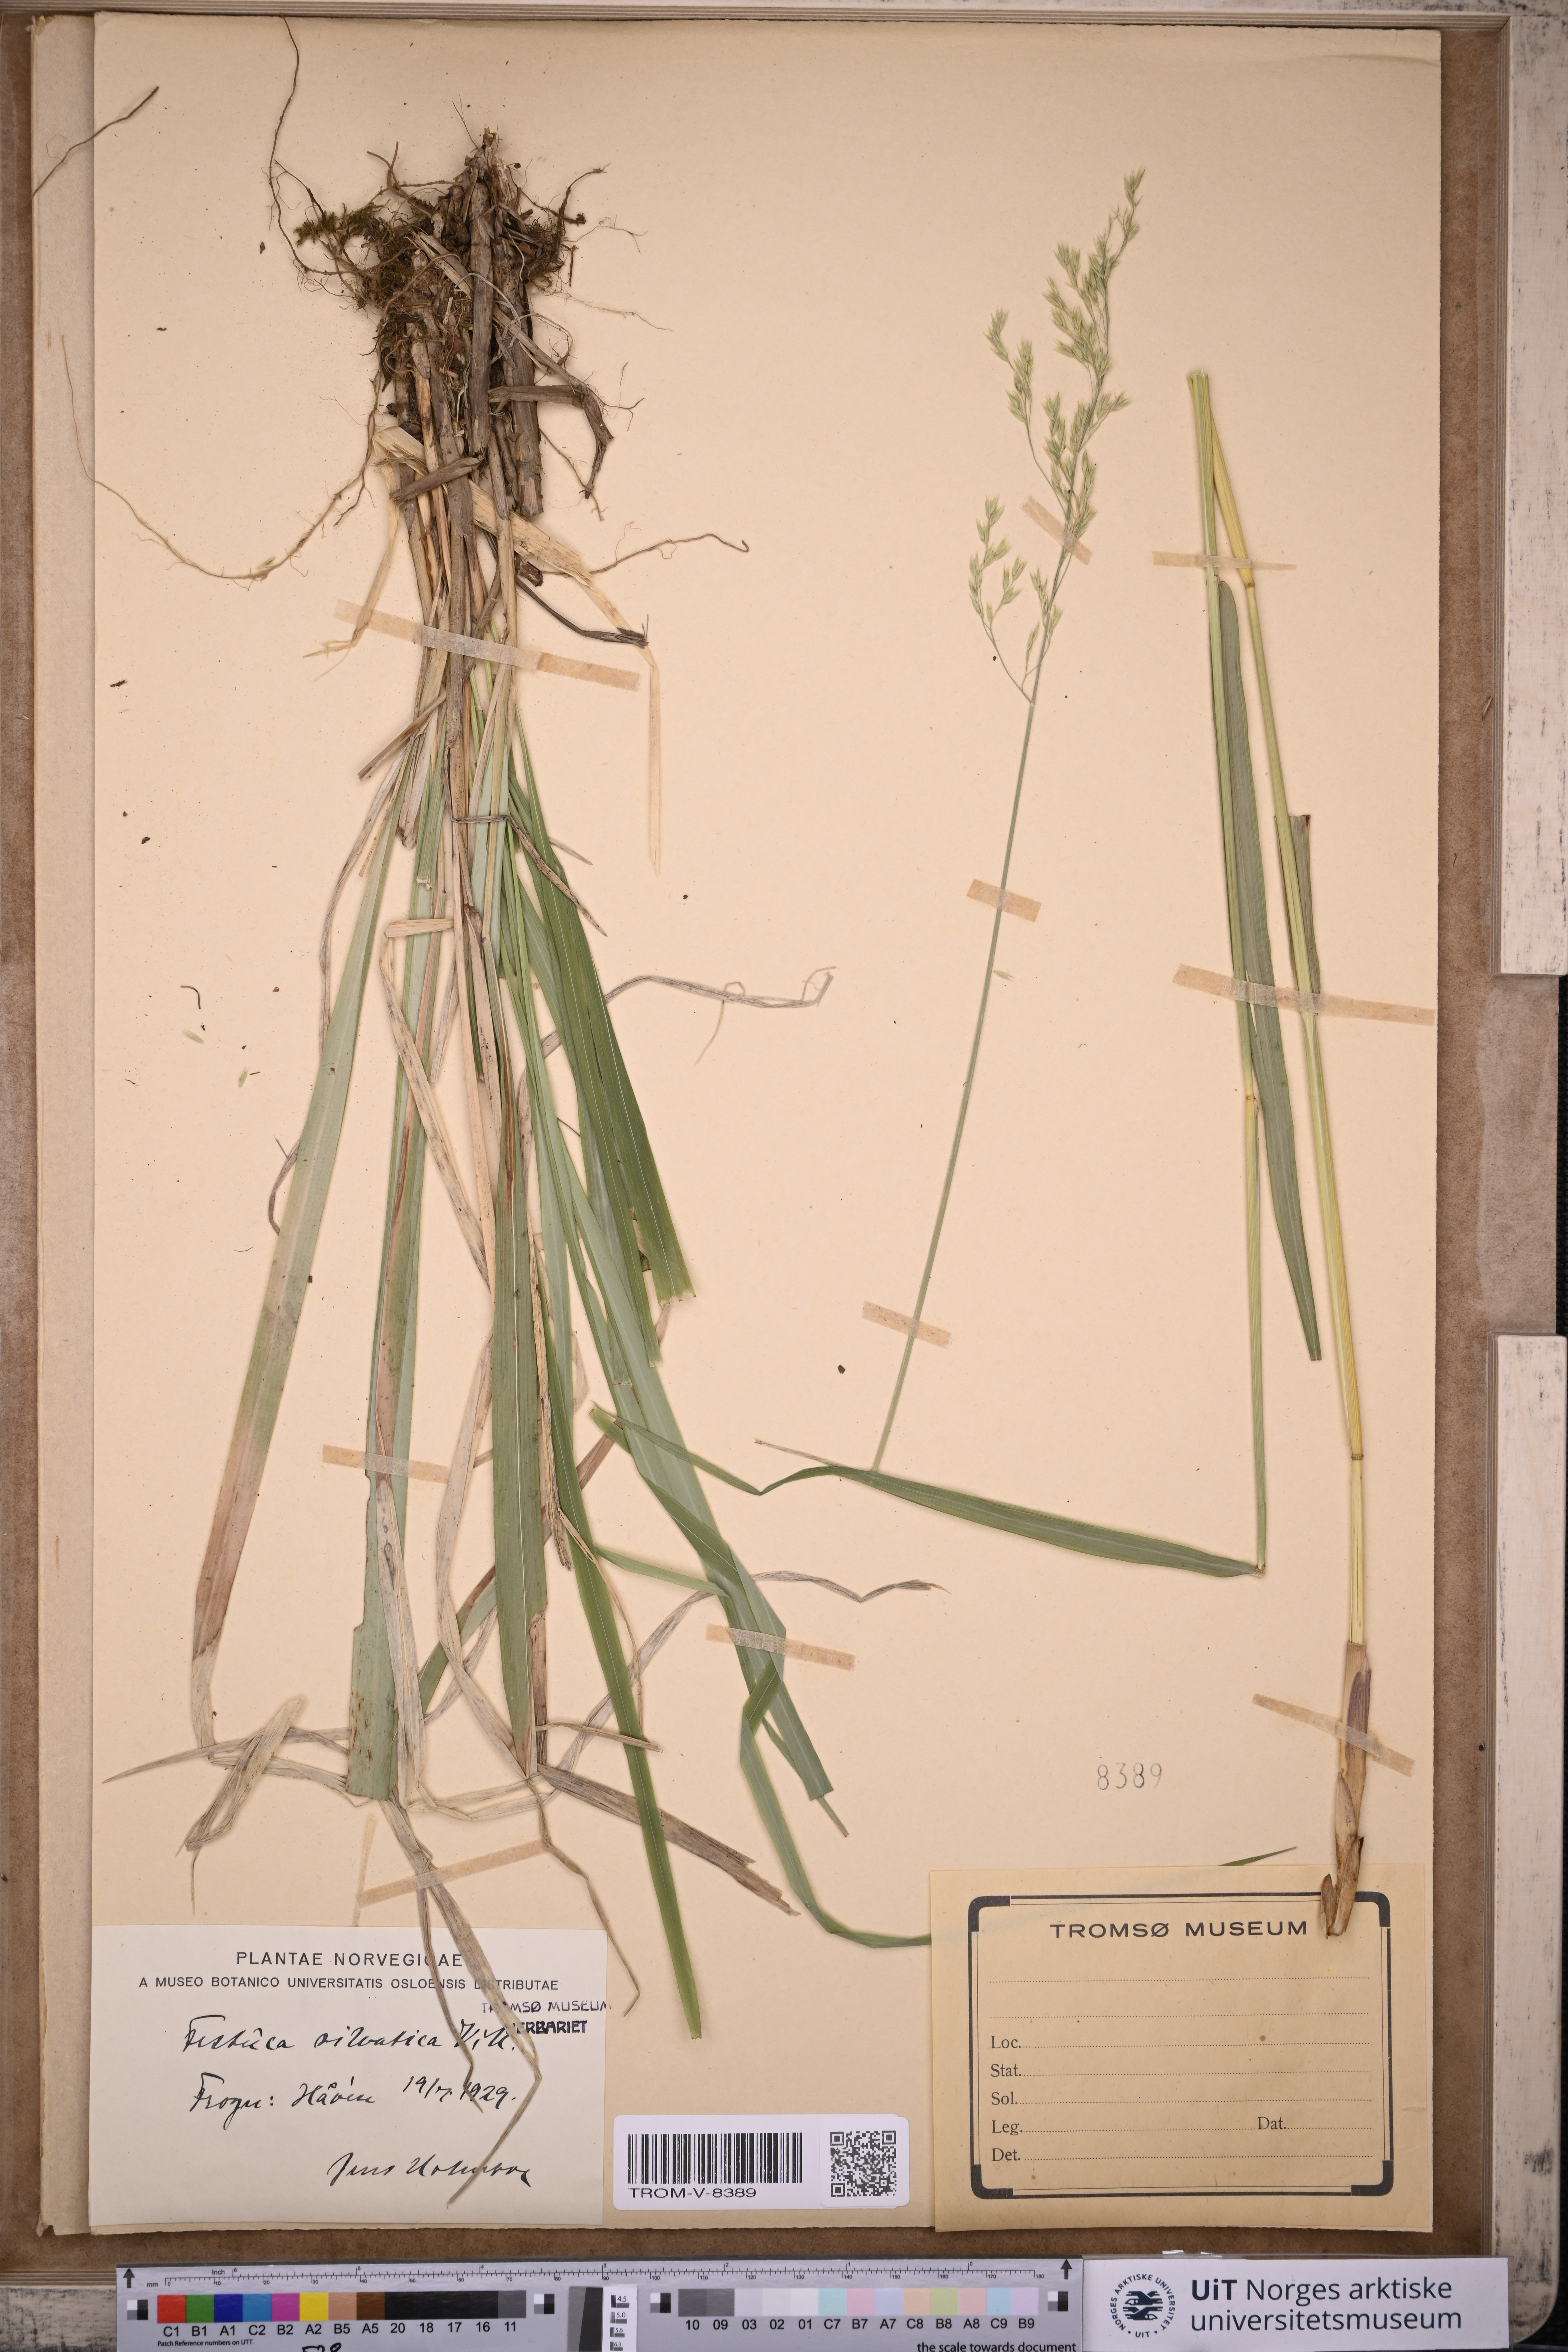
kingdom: Plantae
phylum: Tracheophyta
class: Liliopsida
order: Poales
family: Poaceae
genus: Festuca
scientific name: Festuca altissima
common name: Wood fescue
